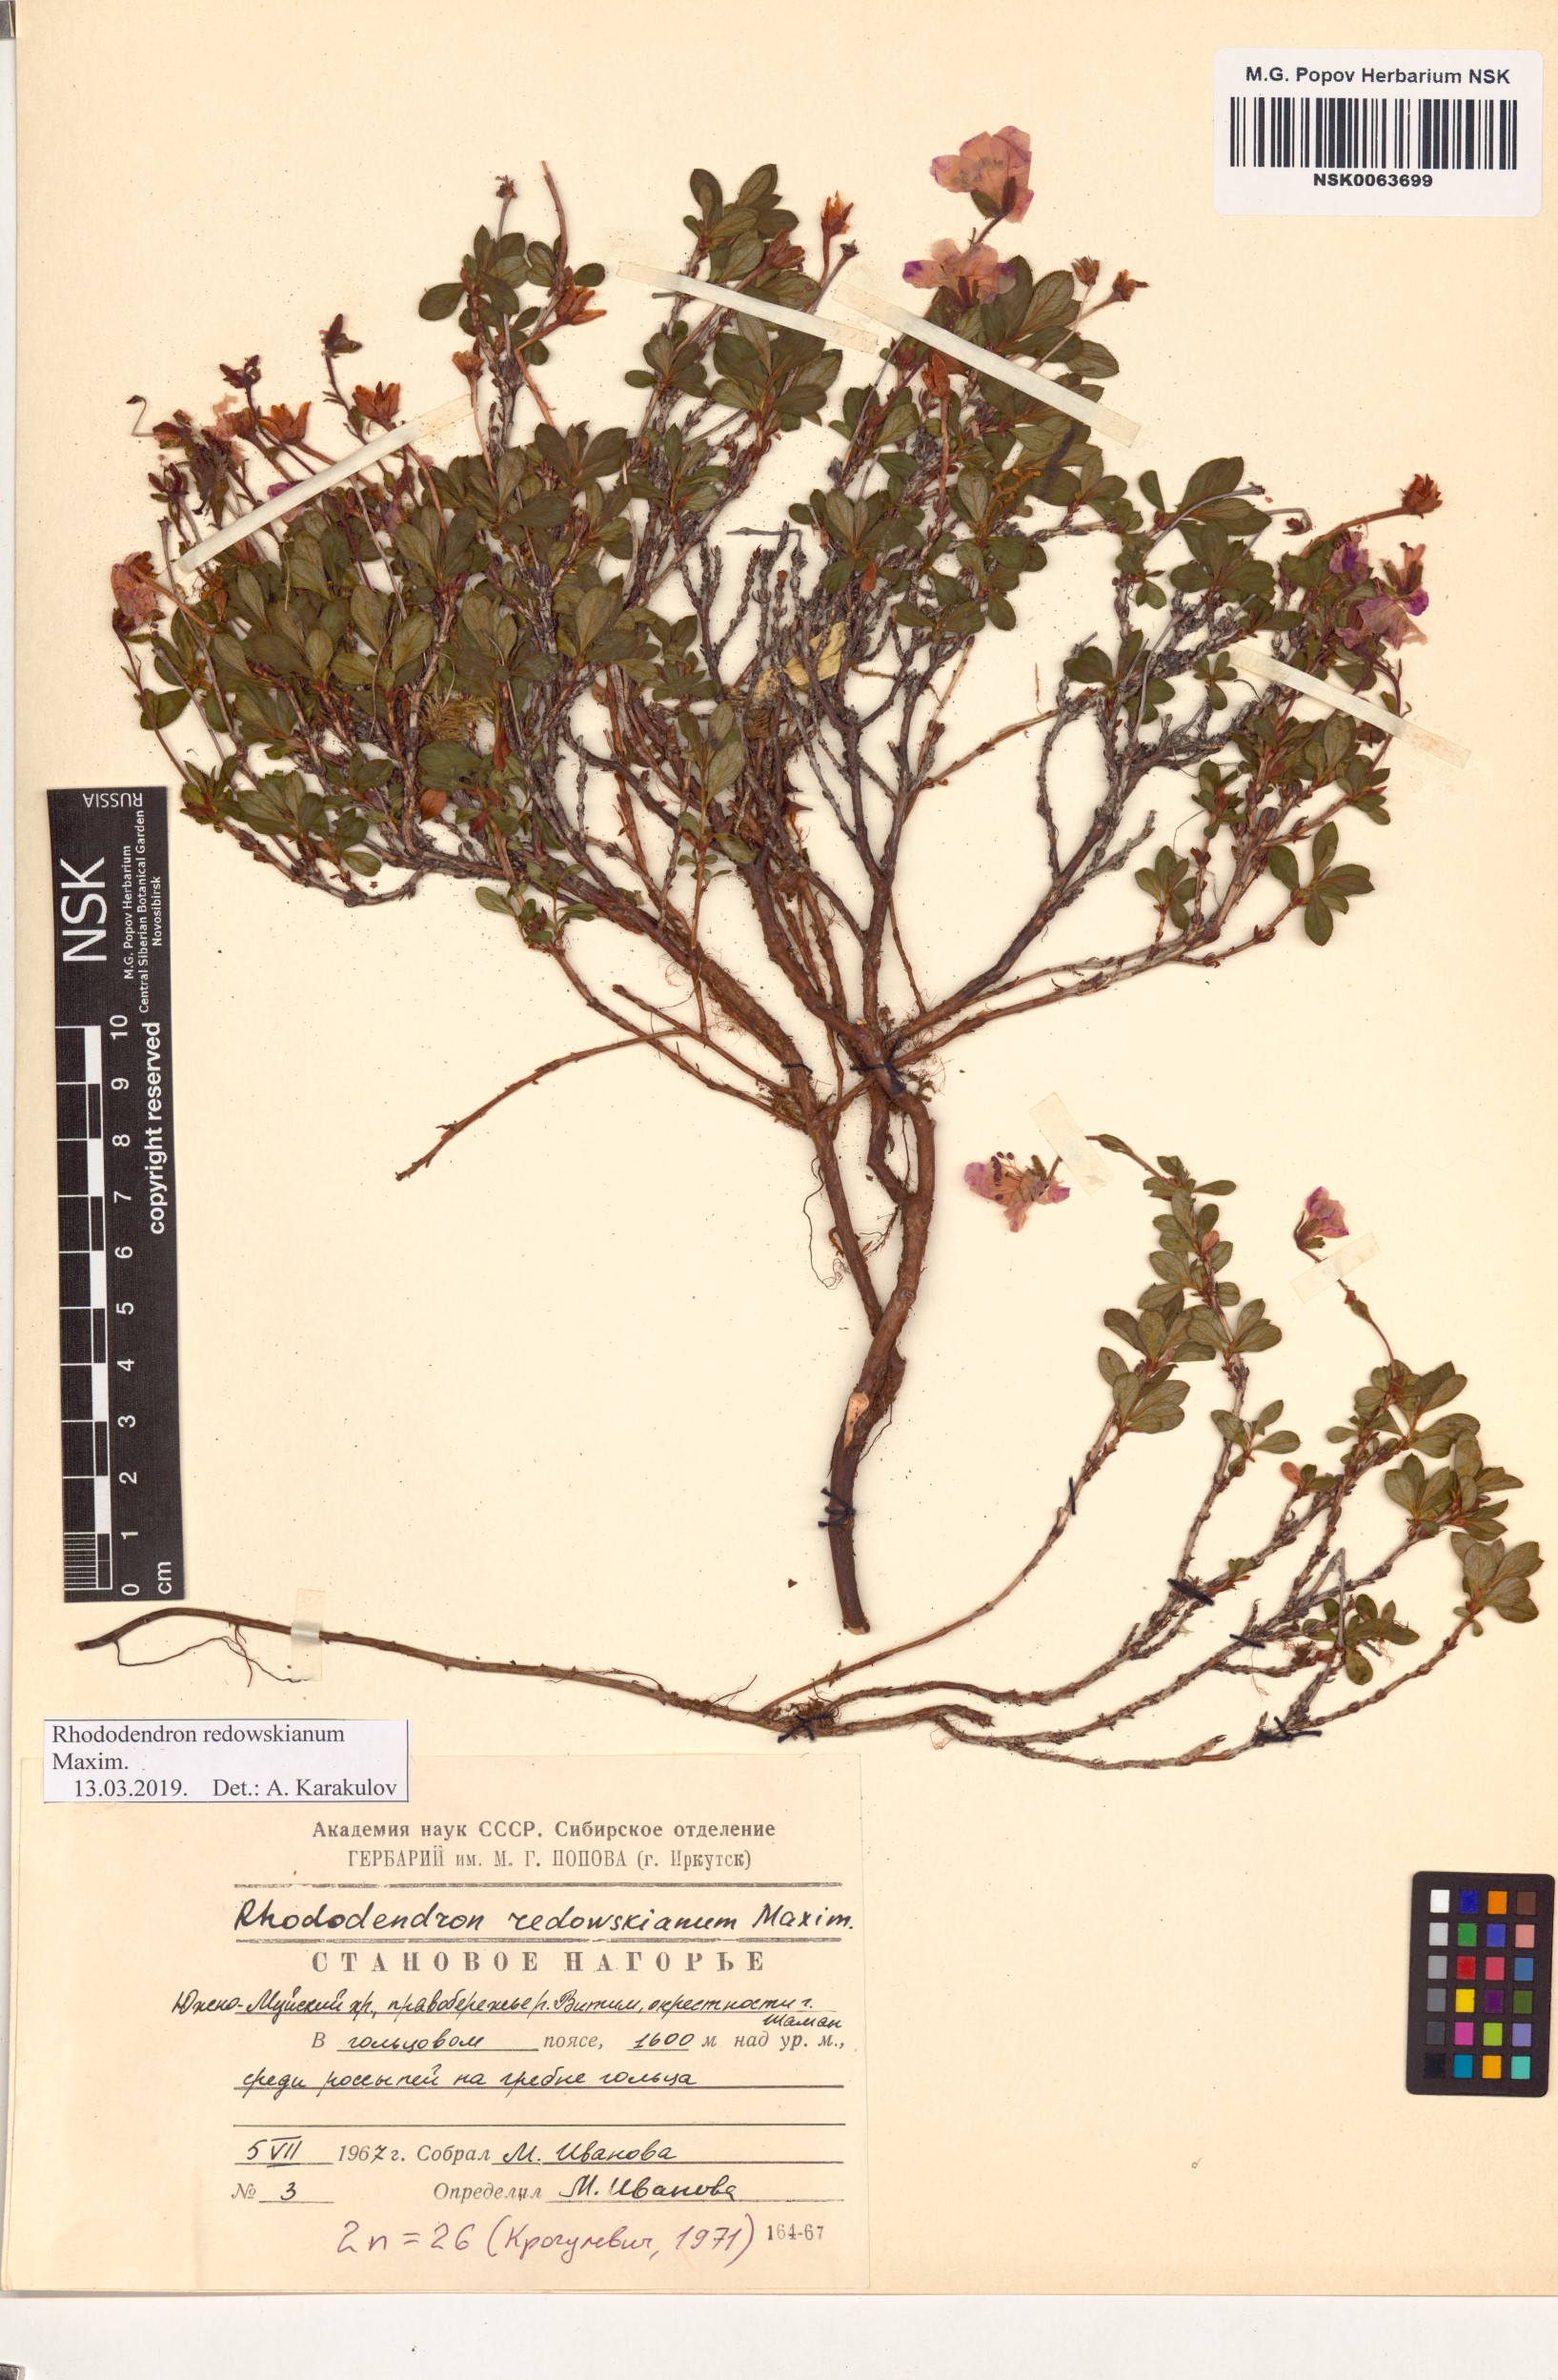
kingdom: Plantae
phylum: Tracheophyta
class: Magnoliopsida
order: Ericales
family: Ericaceae
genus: Rhododendron
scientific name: Rhododendron redowskianum
